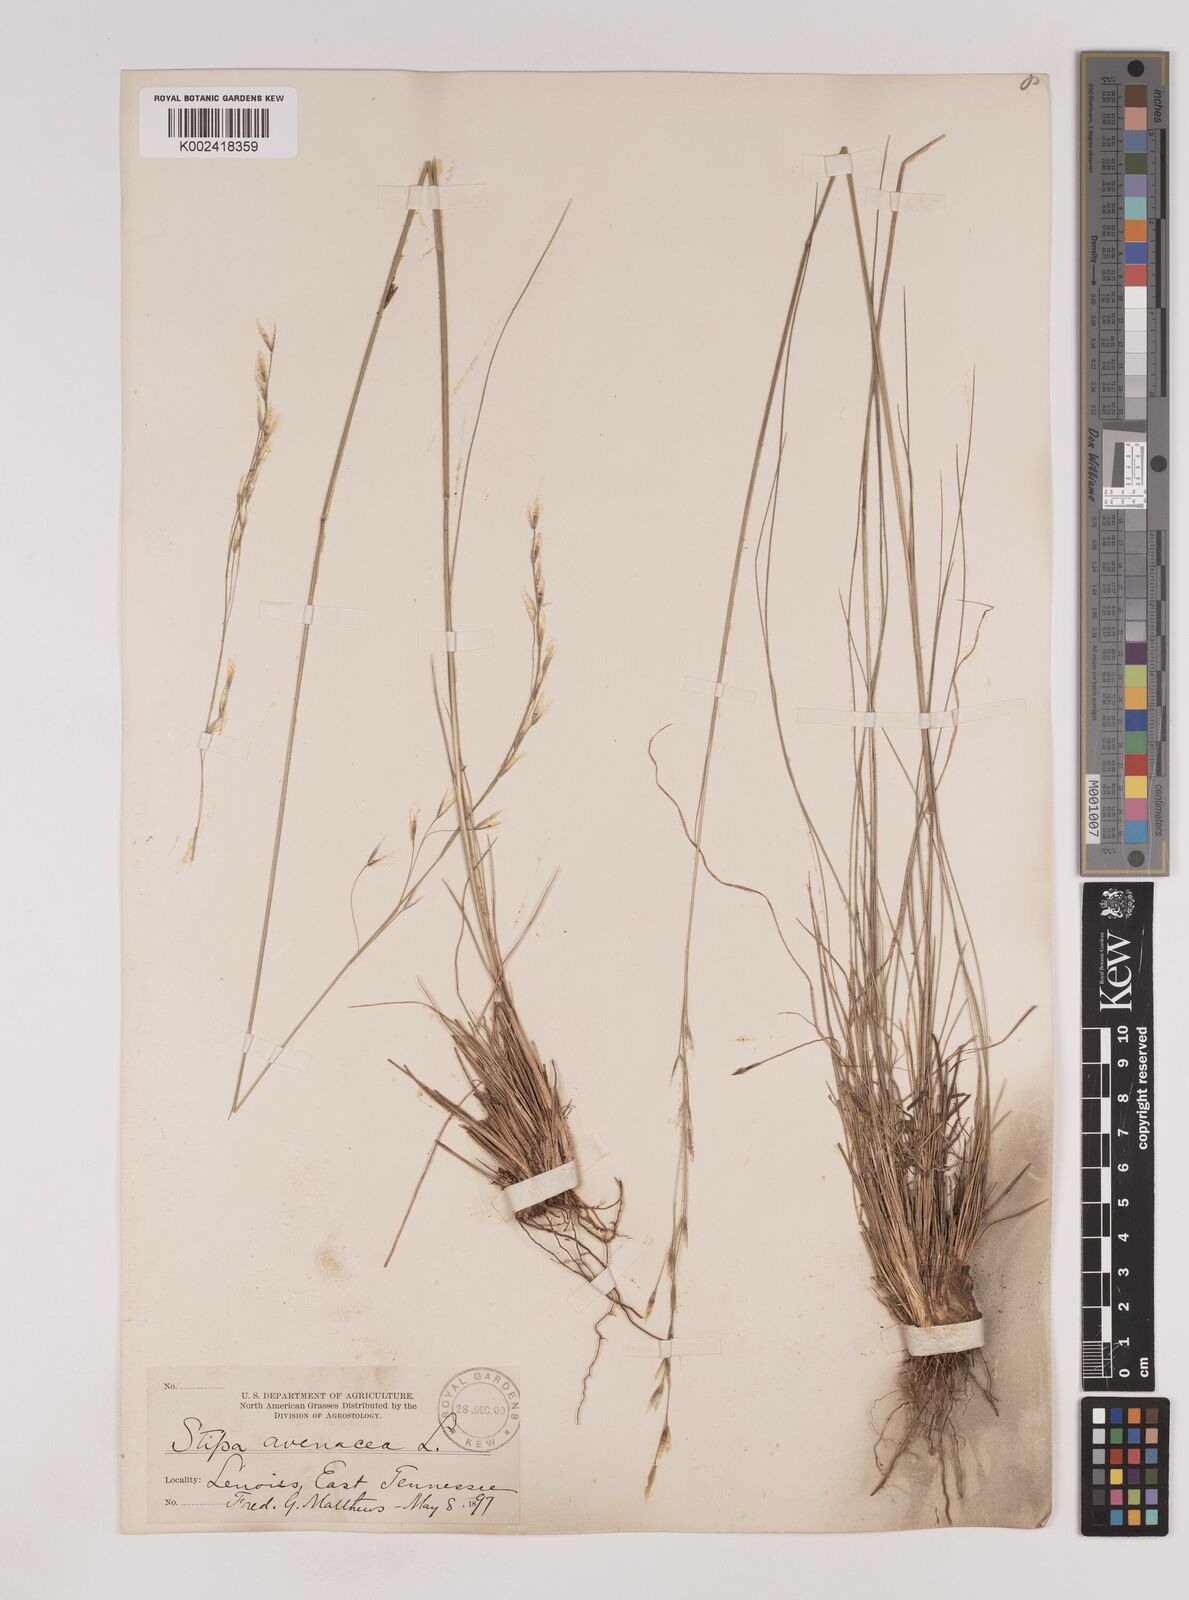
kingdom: Plantae
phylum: Tracheophyta
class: Liliopsida
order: Poales
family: Poaceae
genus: Piptochaetium
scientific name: Piptochaetium avenaceum
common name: Black bunchgrass
